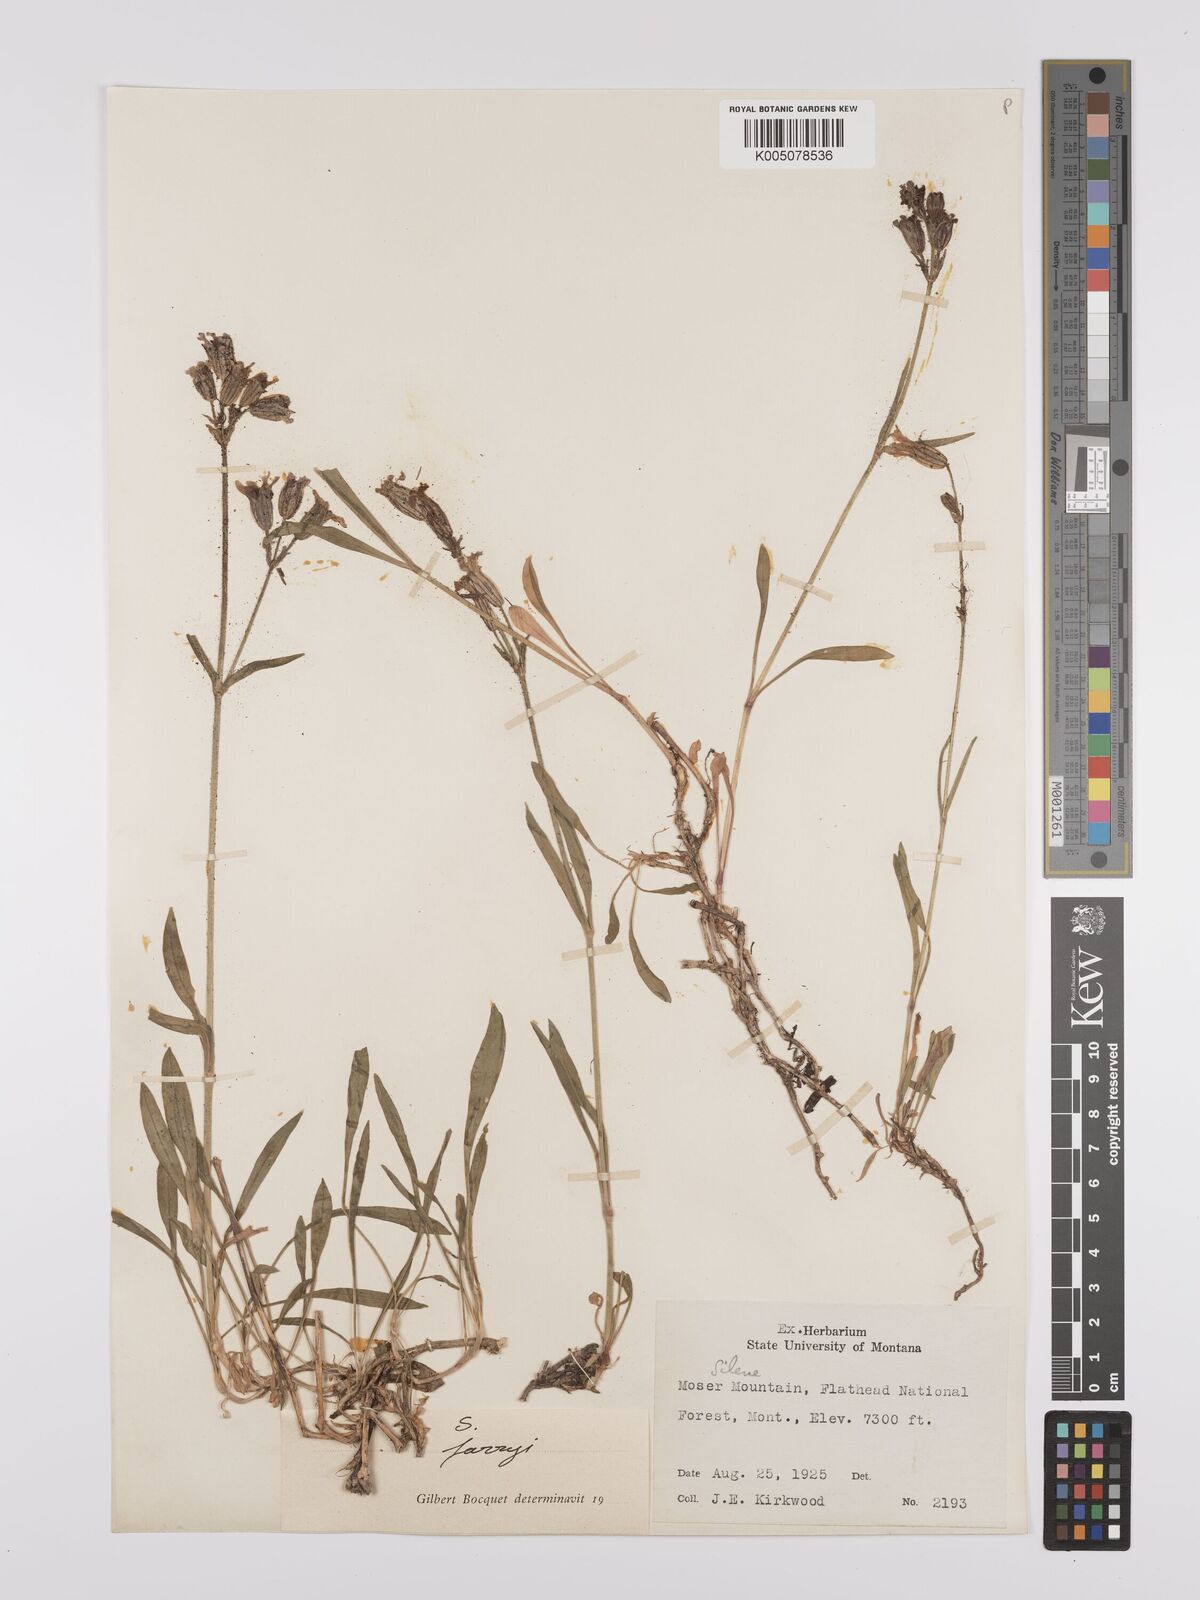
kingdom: Plantae
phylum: Tracheophyta
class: Magnoliopsida
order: Caryophyllales
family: Caryophyllaceae
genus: Silene
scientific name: Silene parryi
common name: Parry's campion
